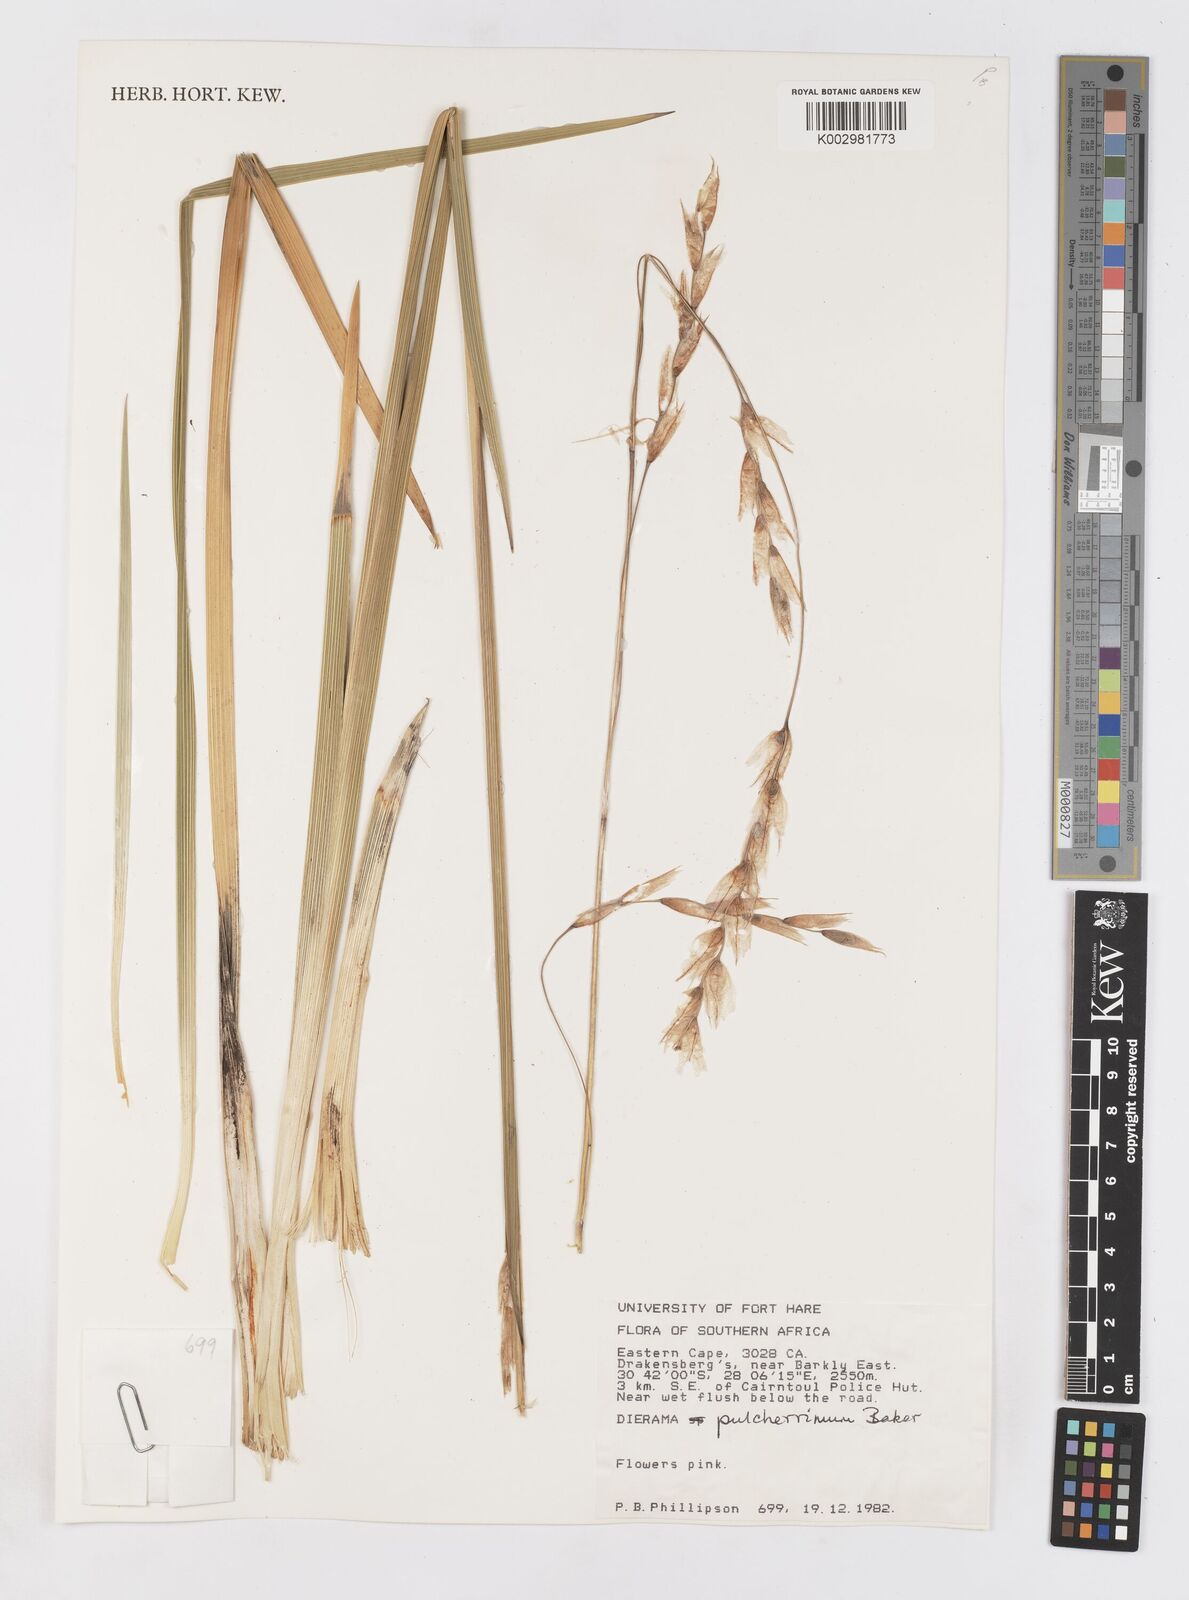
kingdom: Plantae
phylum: Tracheophyta
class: Liliopsida
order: Asparagales
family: Iridaceae
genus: Dierama
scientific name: Dierama pulcherrimum
